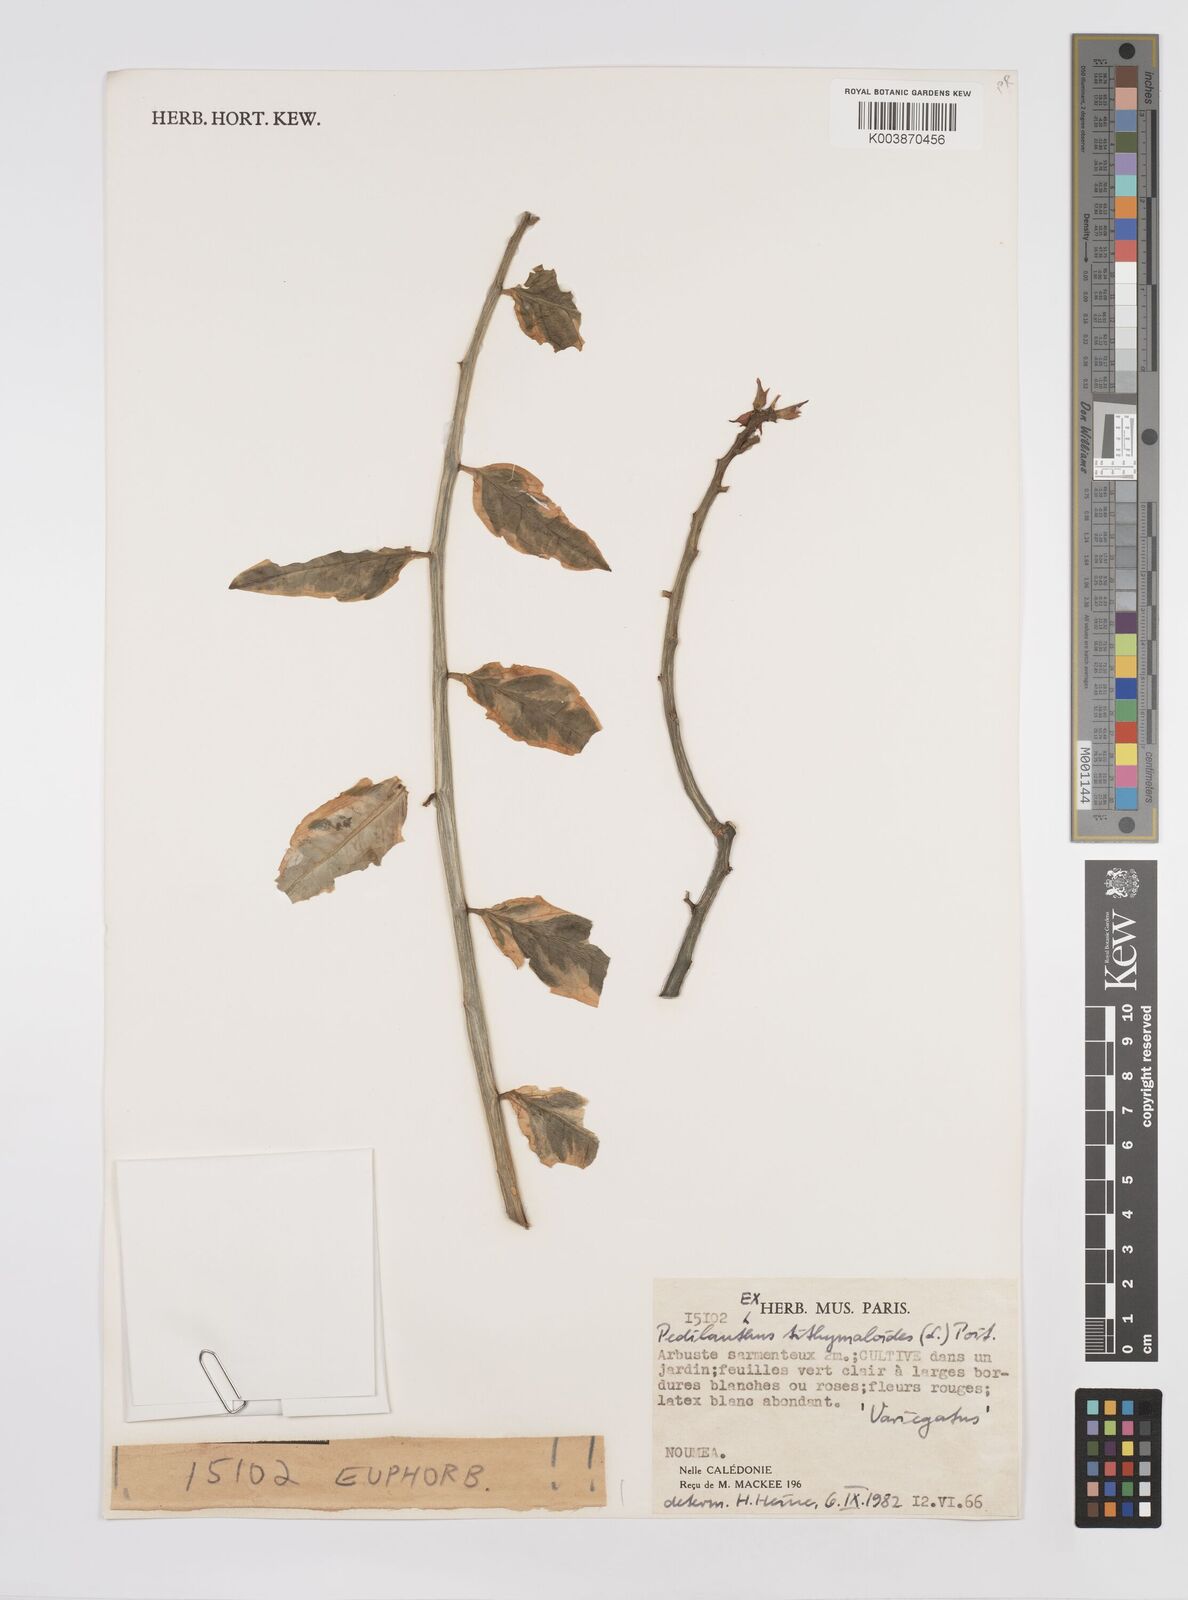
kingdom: Plantae
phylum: Tracheophyta
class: Magnoliopsida
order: Malpighiales
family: Euphorbiaceae
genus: Euphorbia
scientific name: Euphorbia tithymaloides
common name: Slipperplant
